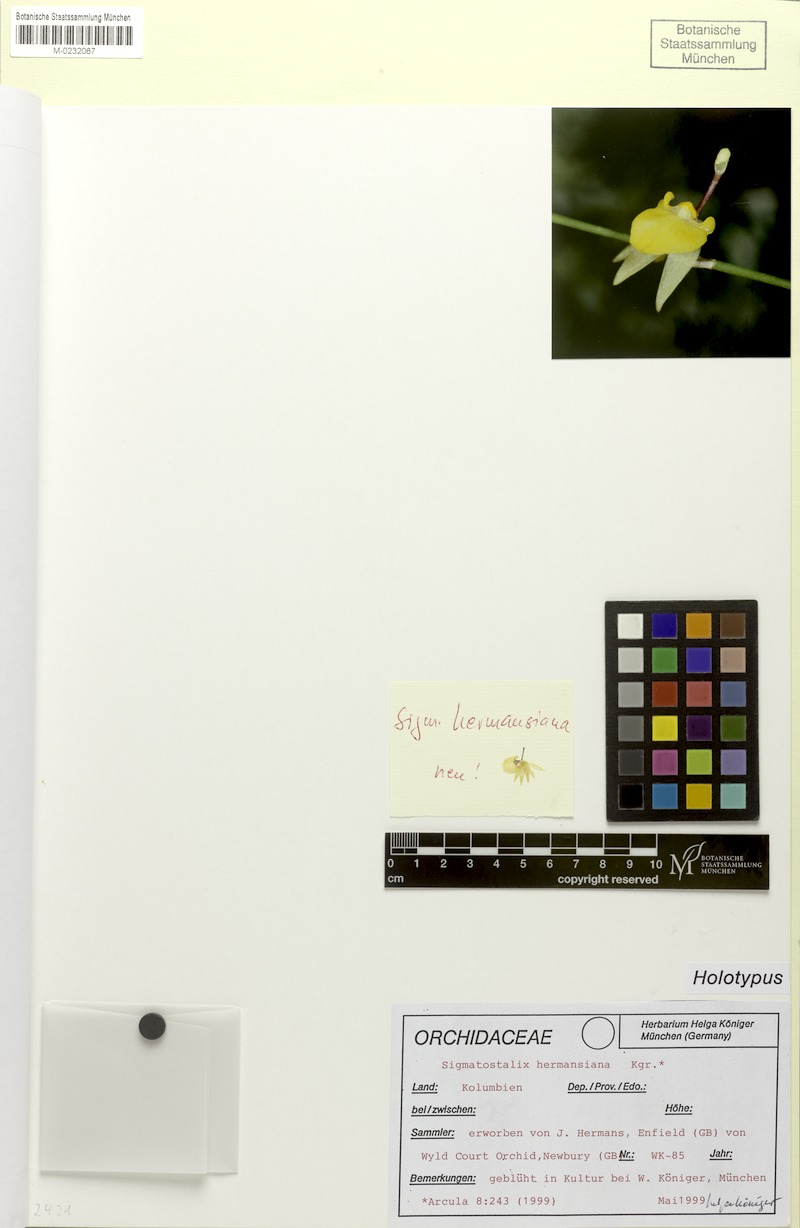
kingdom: Plantae
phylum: Tracheophyta
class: Liliopsida
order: Asparagales
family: Orchidaceae
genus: Oncidium
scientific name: Oncidium hermansianum
